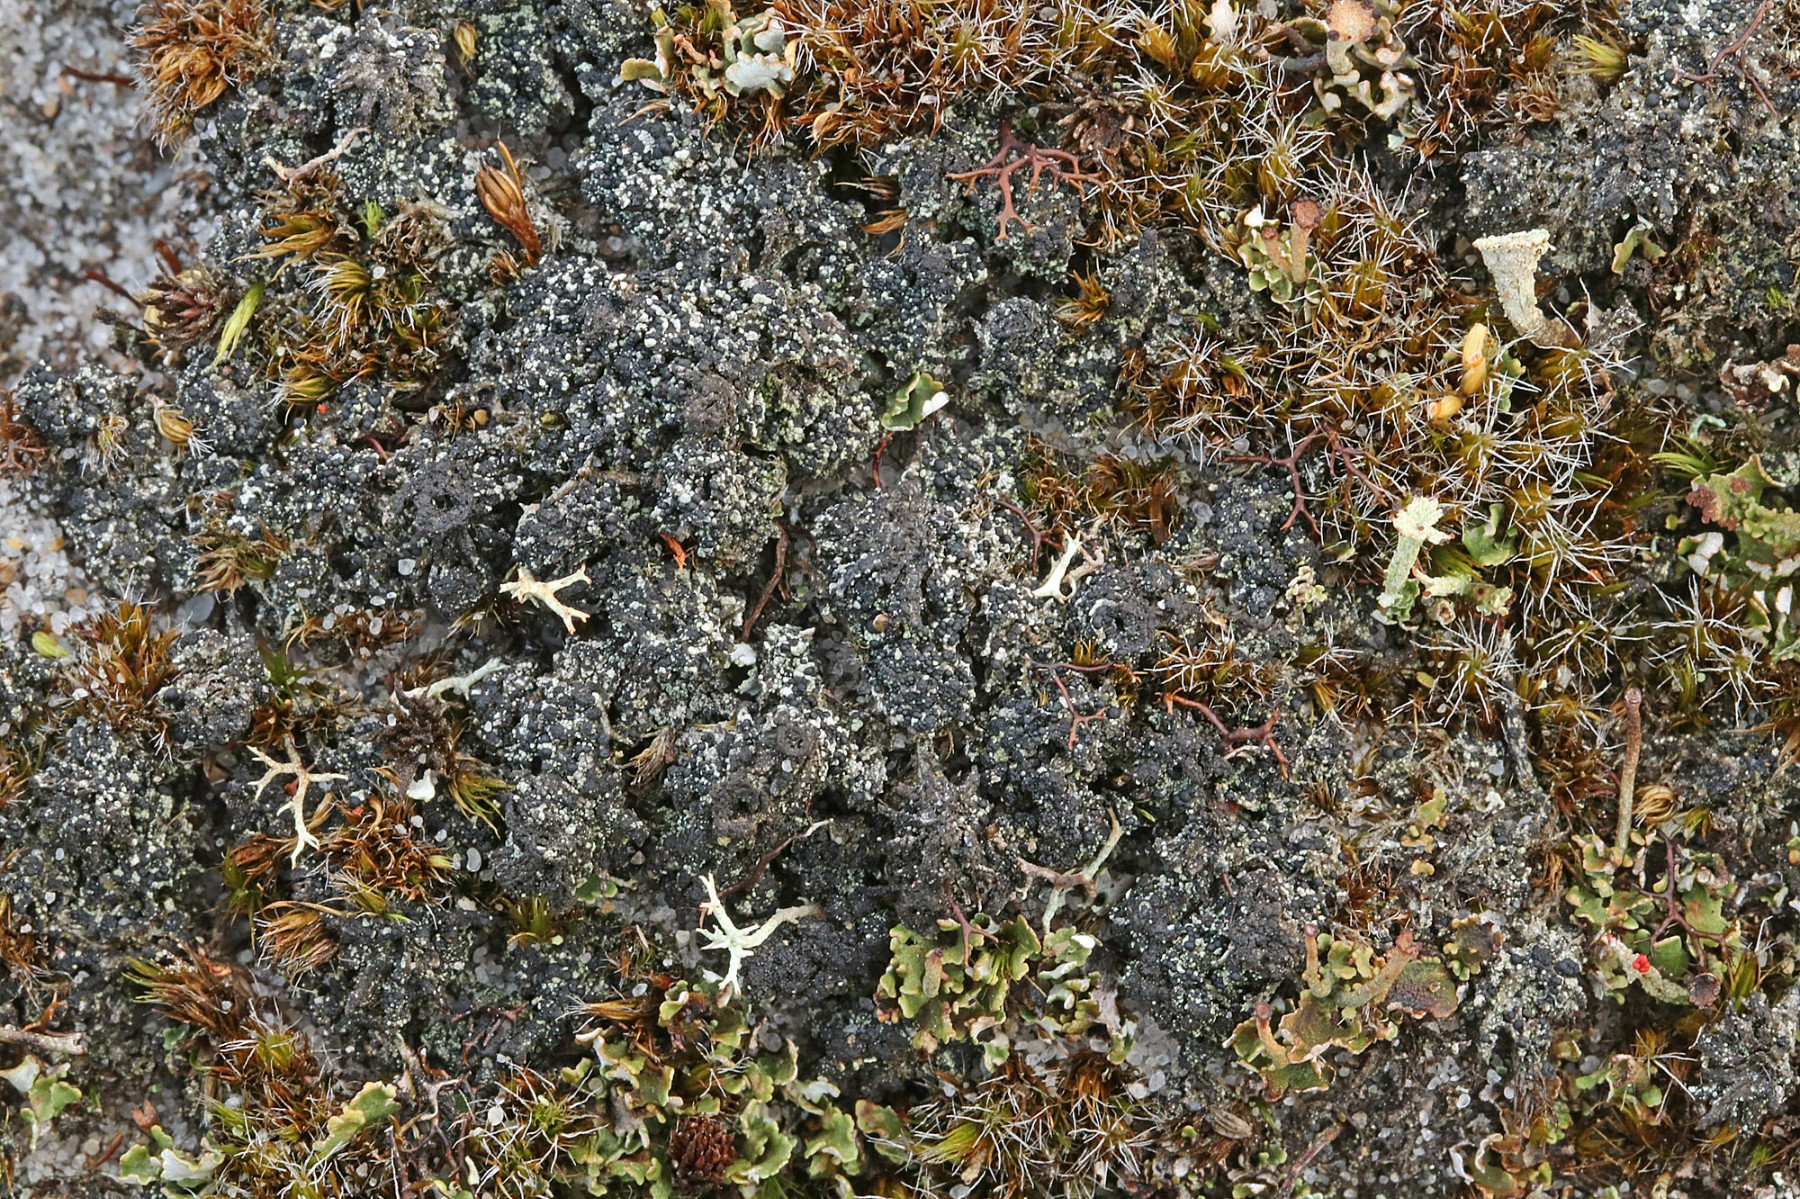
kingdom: Fungi
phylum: Ascomycota
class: Lecanoromycetes
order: Lecanorales
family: Byssolomataceae
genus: Micarea
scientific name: Micarea lignaria
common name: tørve-knaplav
